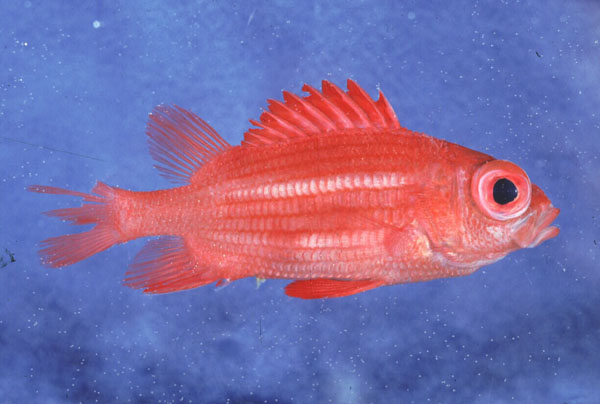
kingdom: Animalia
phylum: Chordata
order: Beryciformes
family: Holocentridae
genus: Sargocentron
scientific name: Sargocentron inaequalis
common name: Lattice squirrelfish
